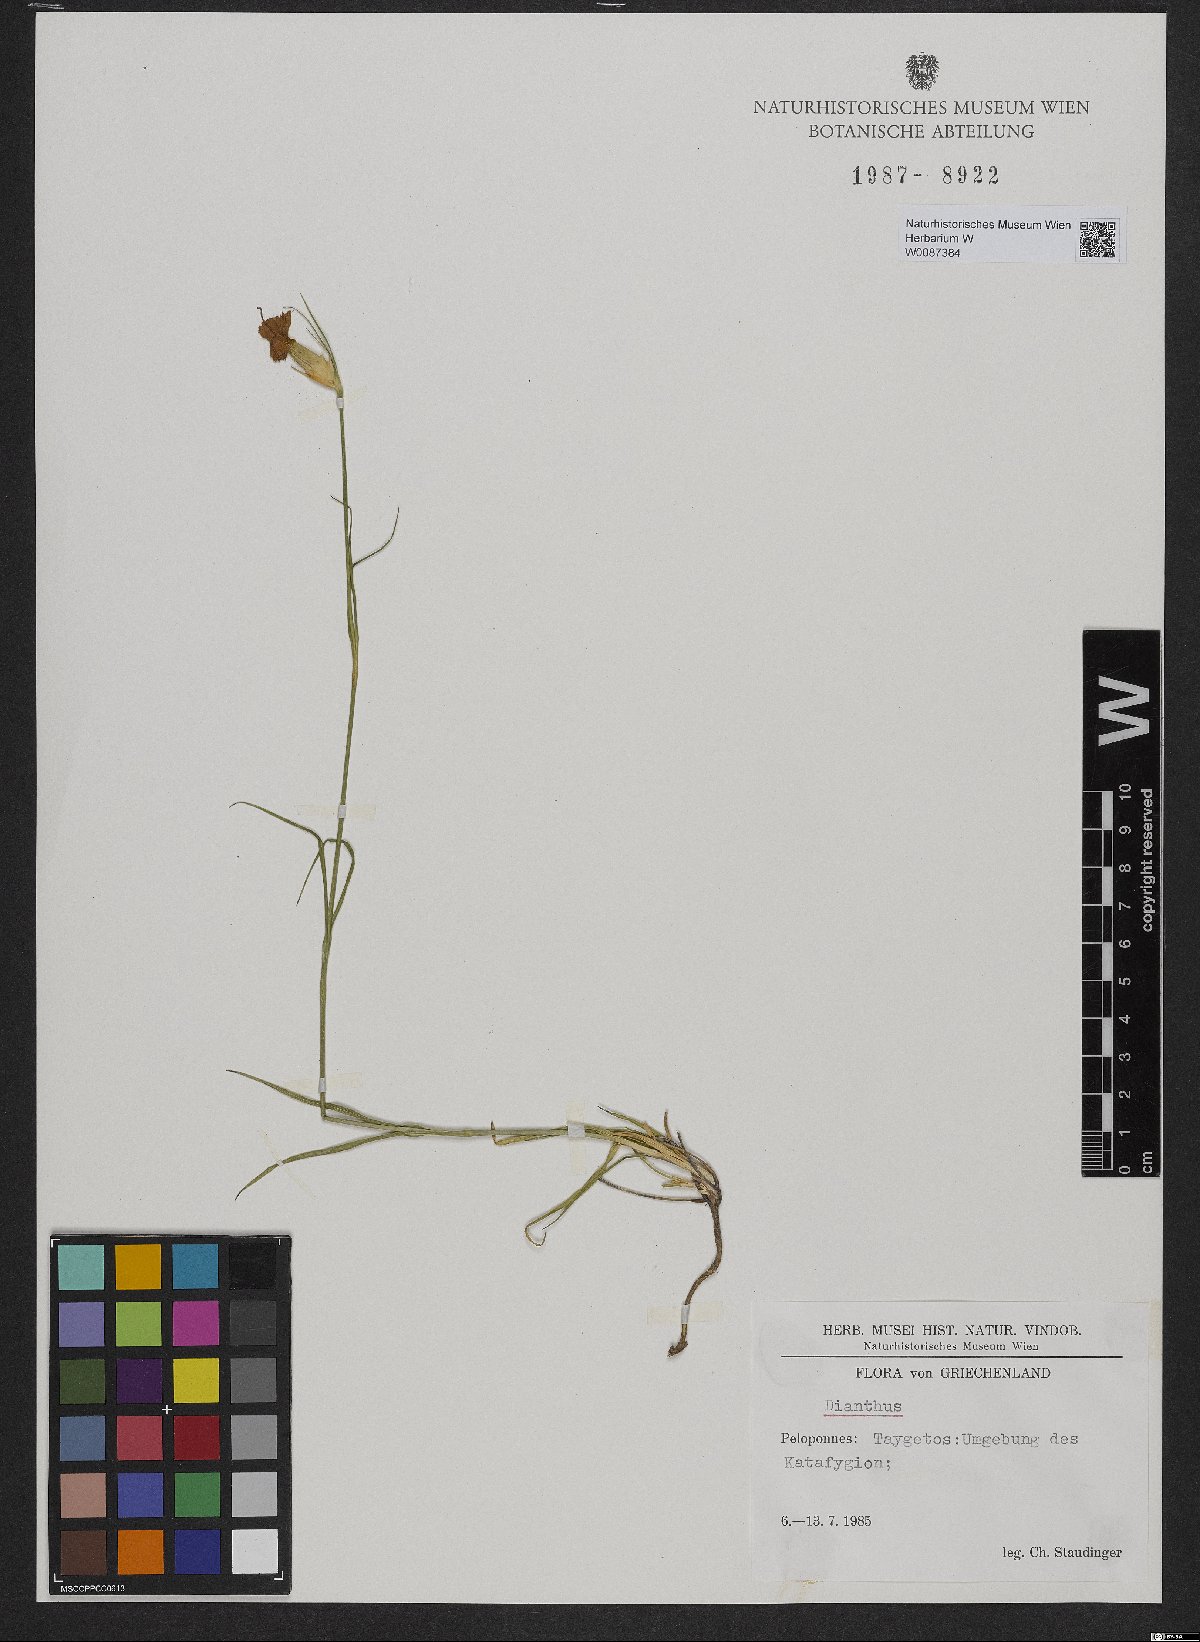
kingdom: Plantae
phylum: Tracheophyta
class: Magnoliopsida
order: Caryophyllales
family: Caryophyllaceae
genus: Dianthus
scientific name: Dianthus
